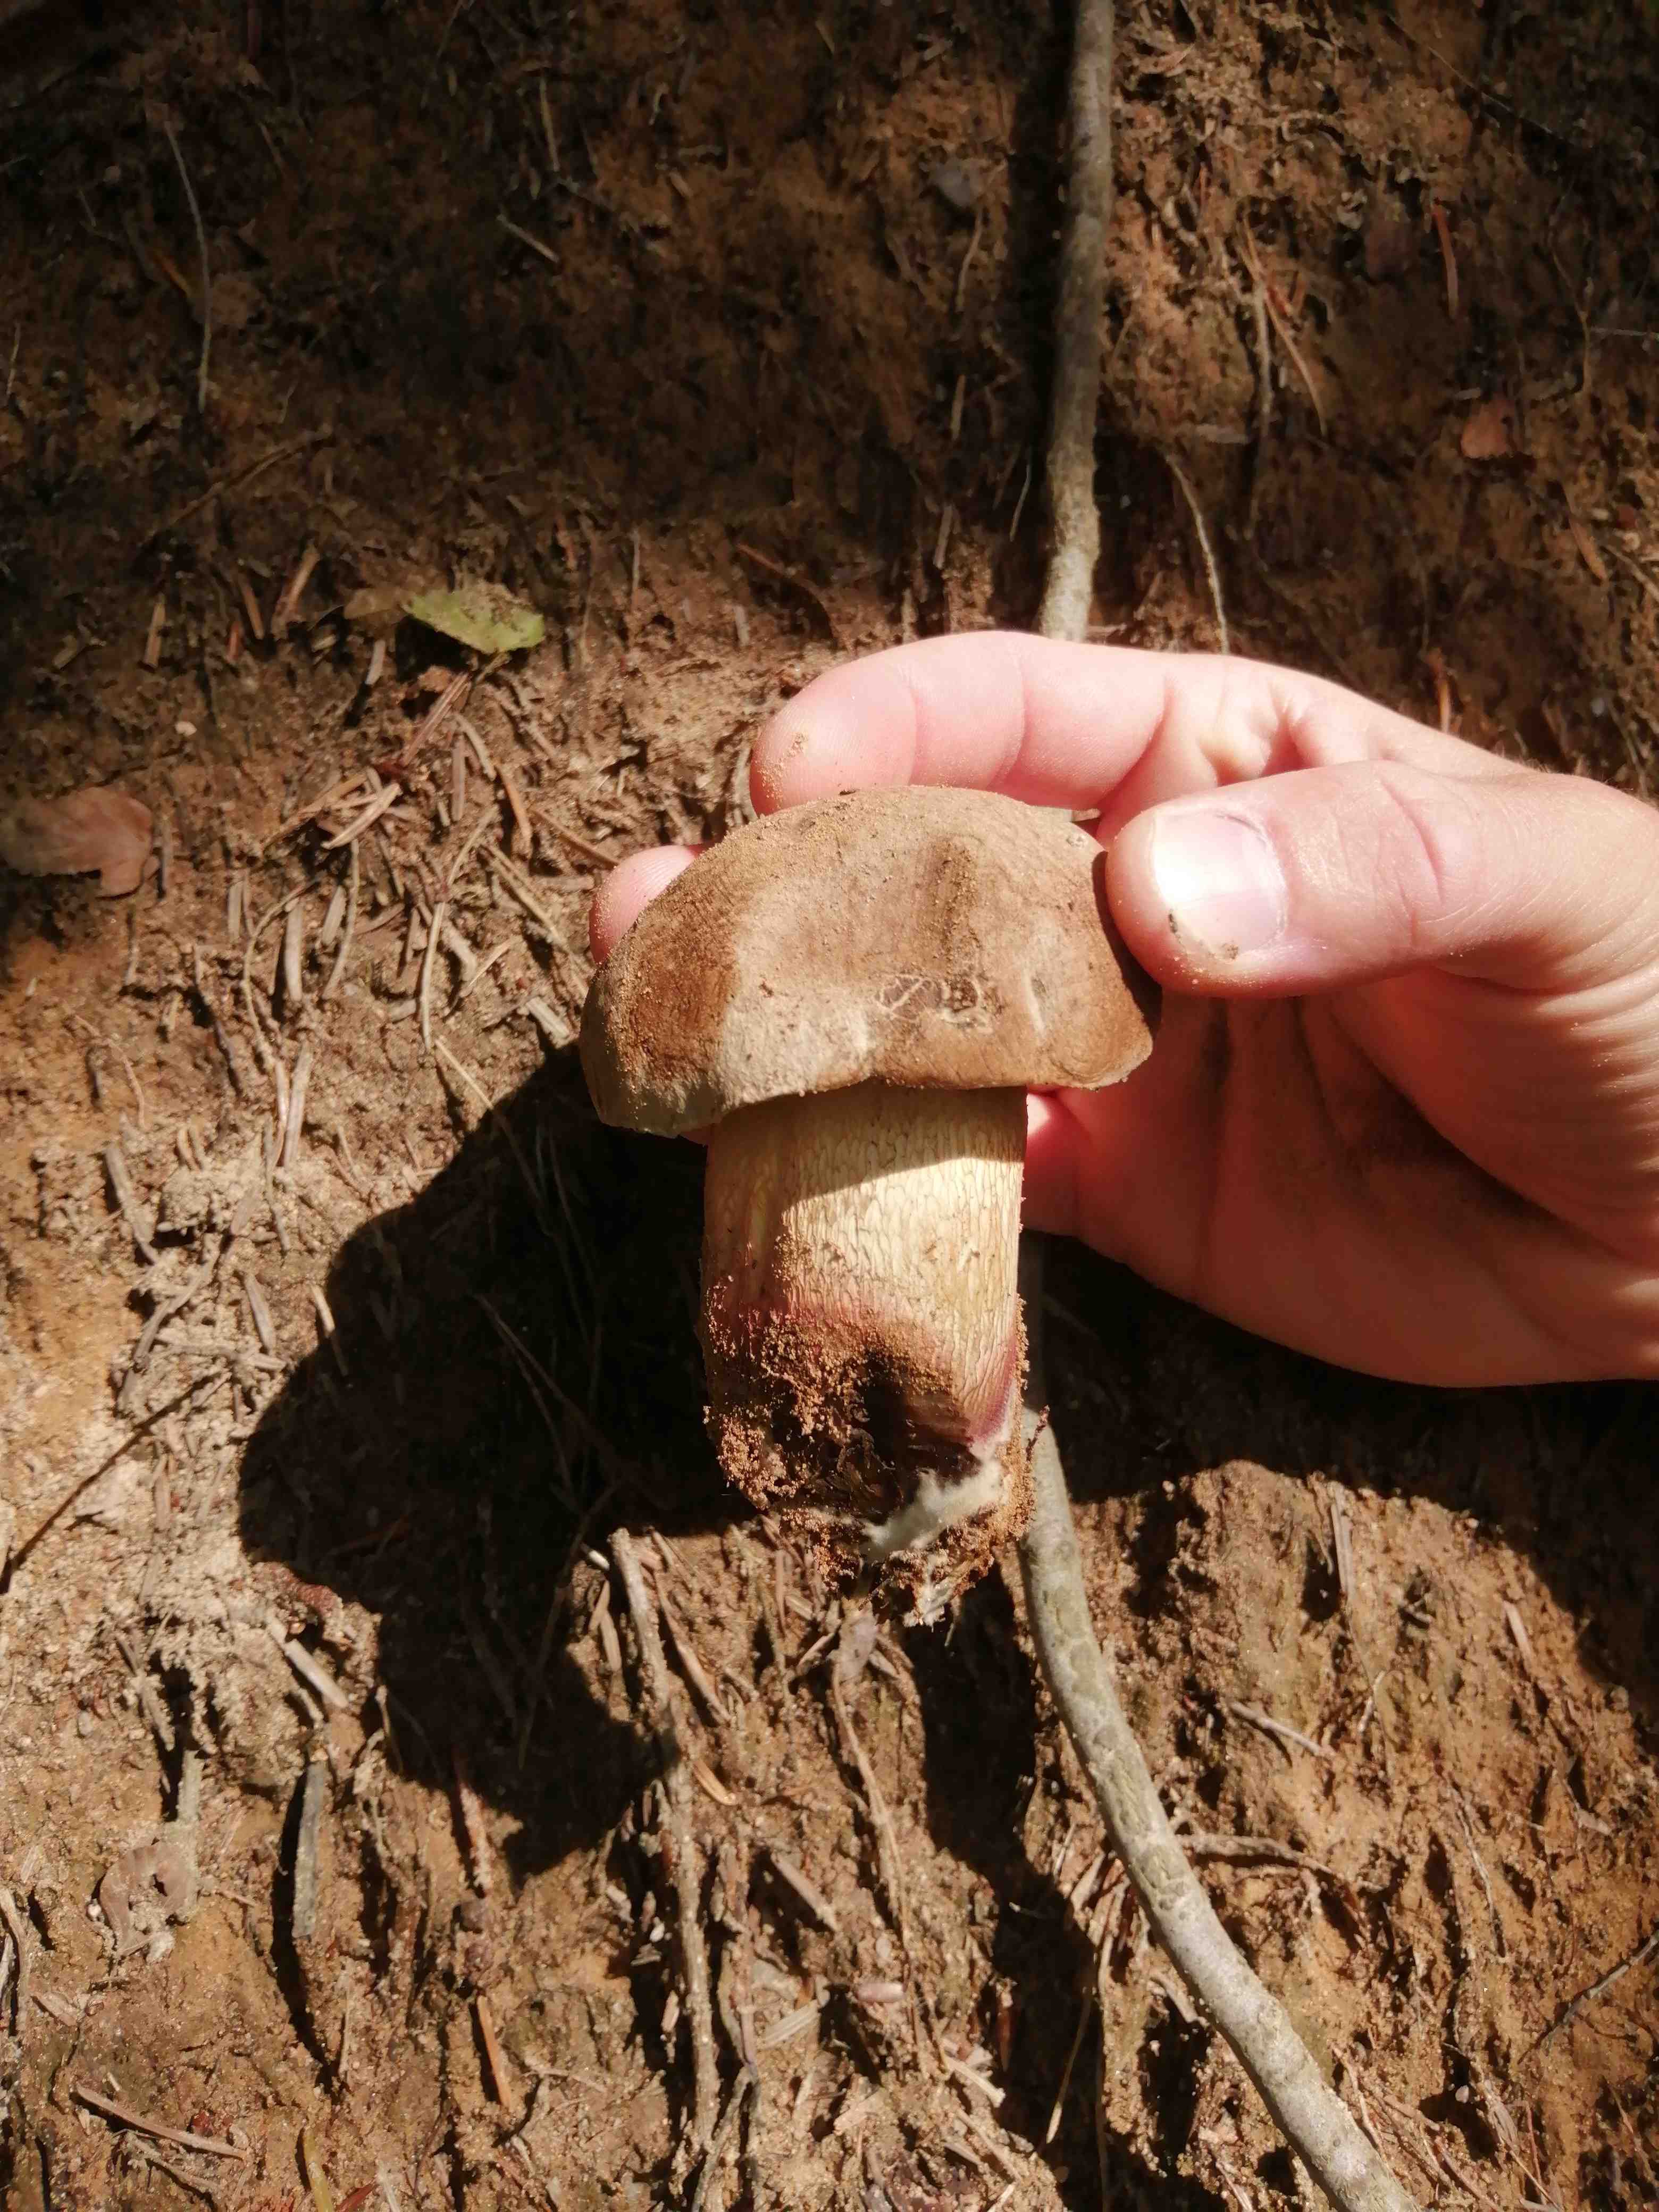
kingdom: Fungi
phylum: Basidiomycota
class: Agaricomycetes
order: Boletales
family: Boletaceae
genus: Caloboletus
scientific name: Caloboletus calopus
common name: skønfodet rørhat
